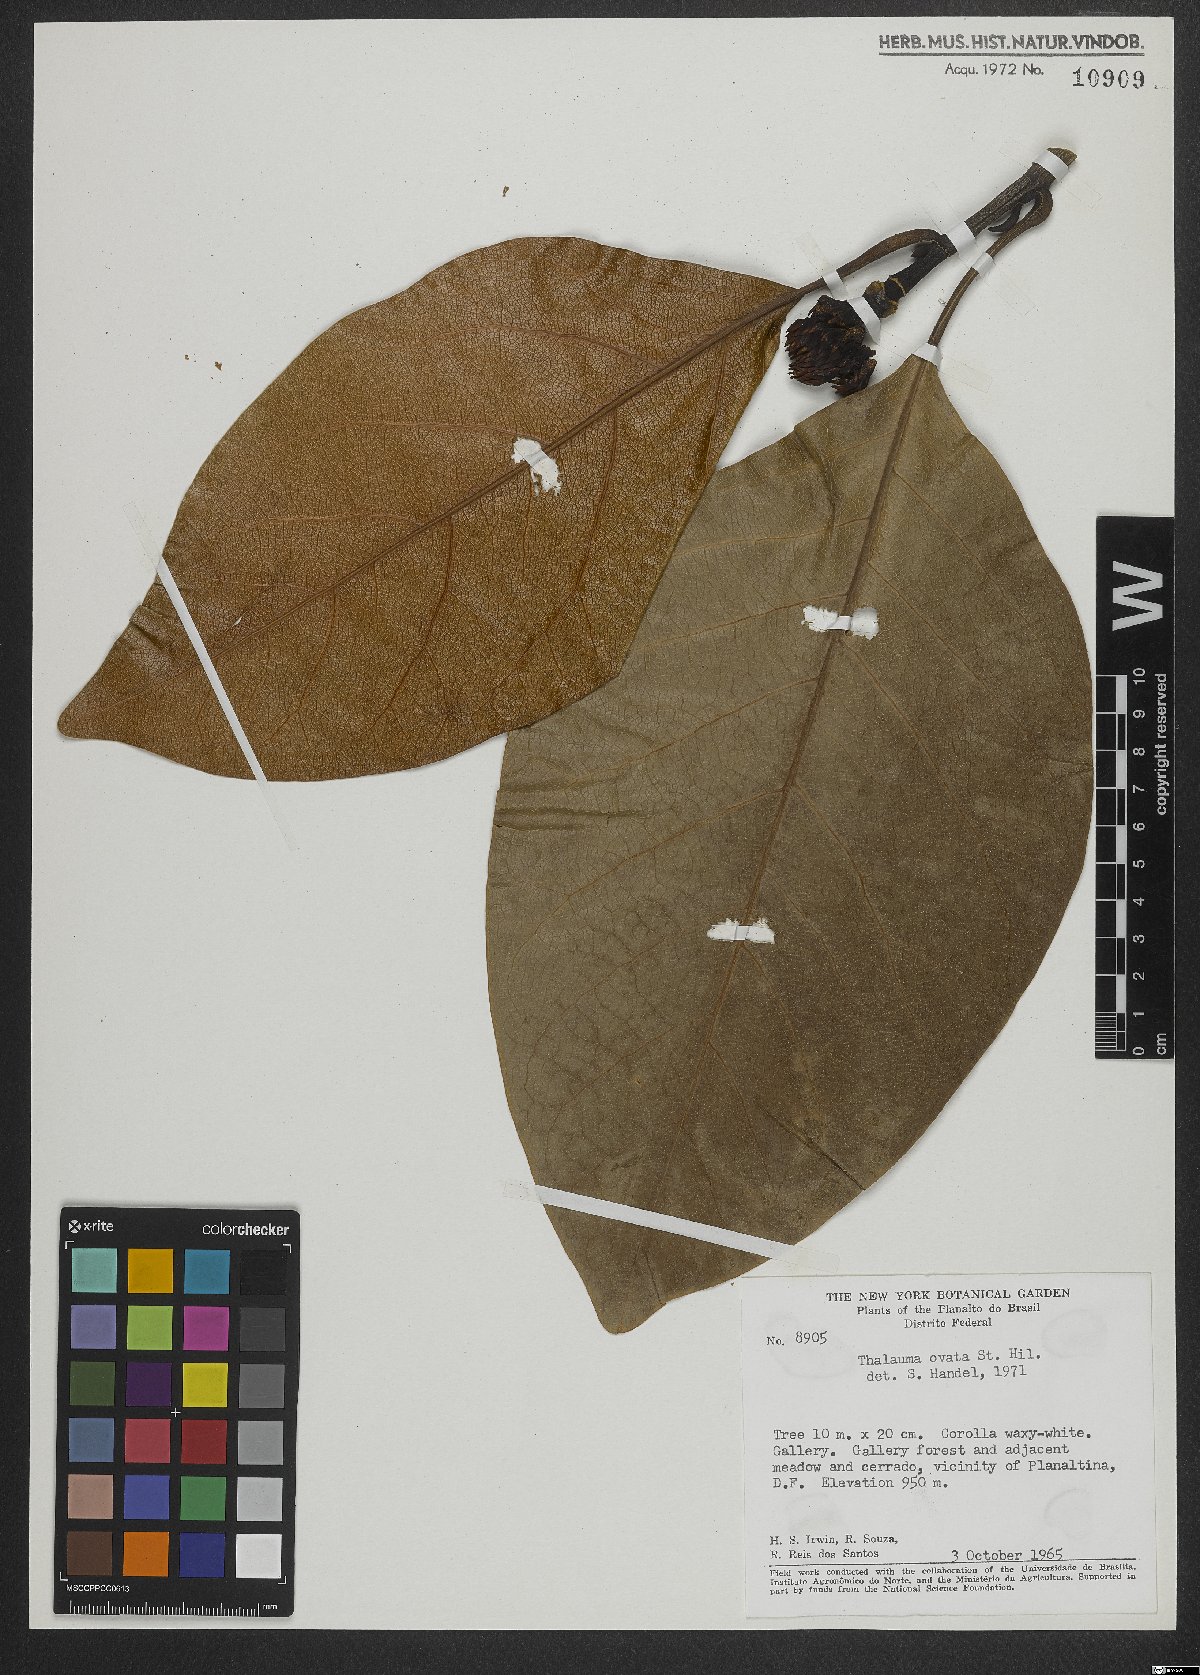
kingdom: Plantae
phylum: Tracheophyta
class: Magnoliopsida
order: Magnoliales
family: Magnoliaceae
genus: Magnolia
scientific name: Magnolia ovata
